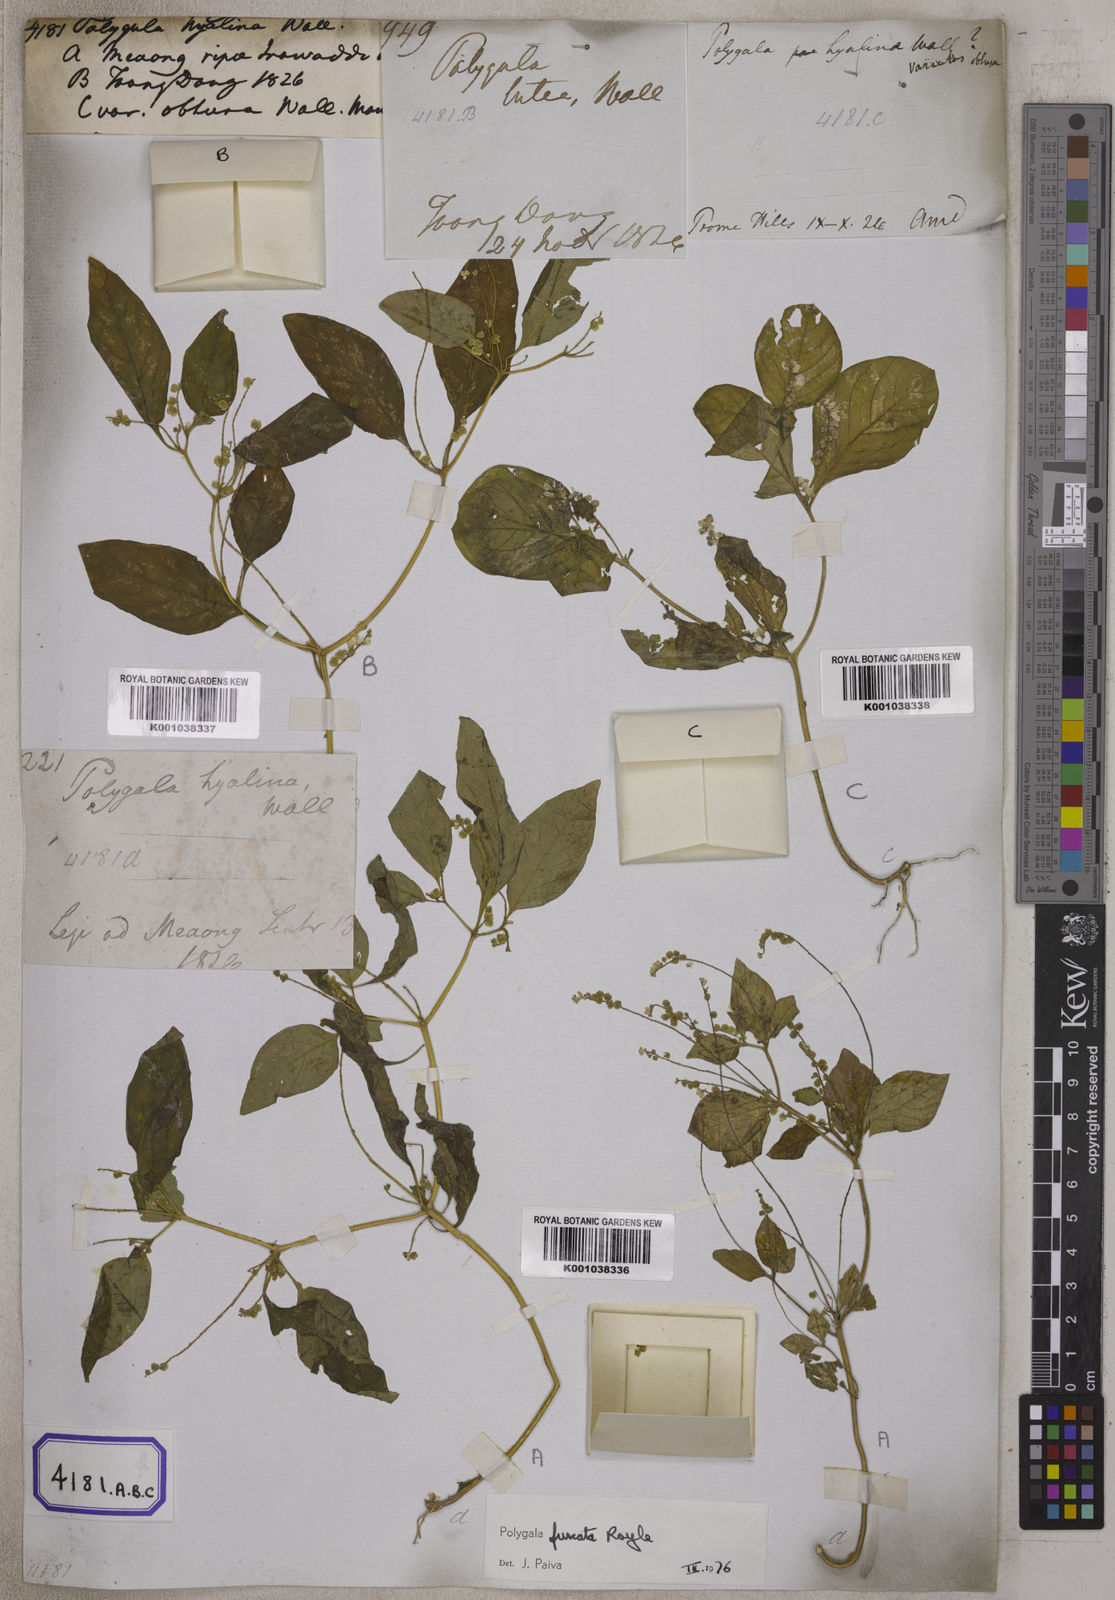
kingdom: Plantae
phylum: Tracheophyta
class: Magnoliopsida
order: Fabales
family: Polygalaceae
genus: Polygala
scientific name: Polygala furcata
